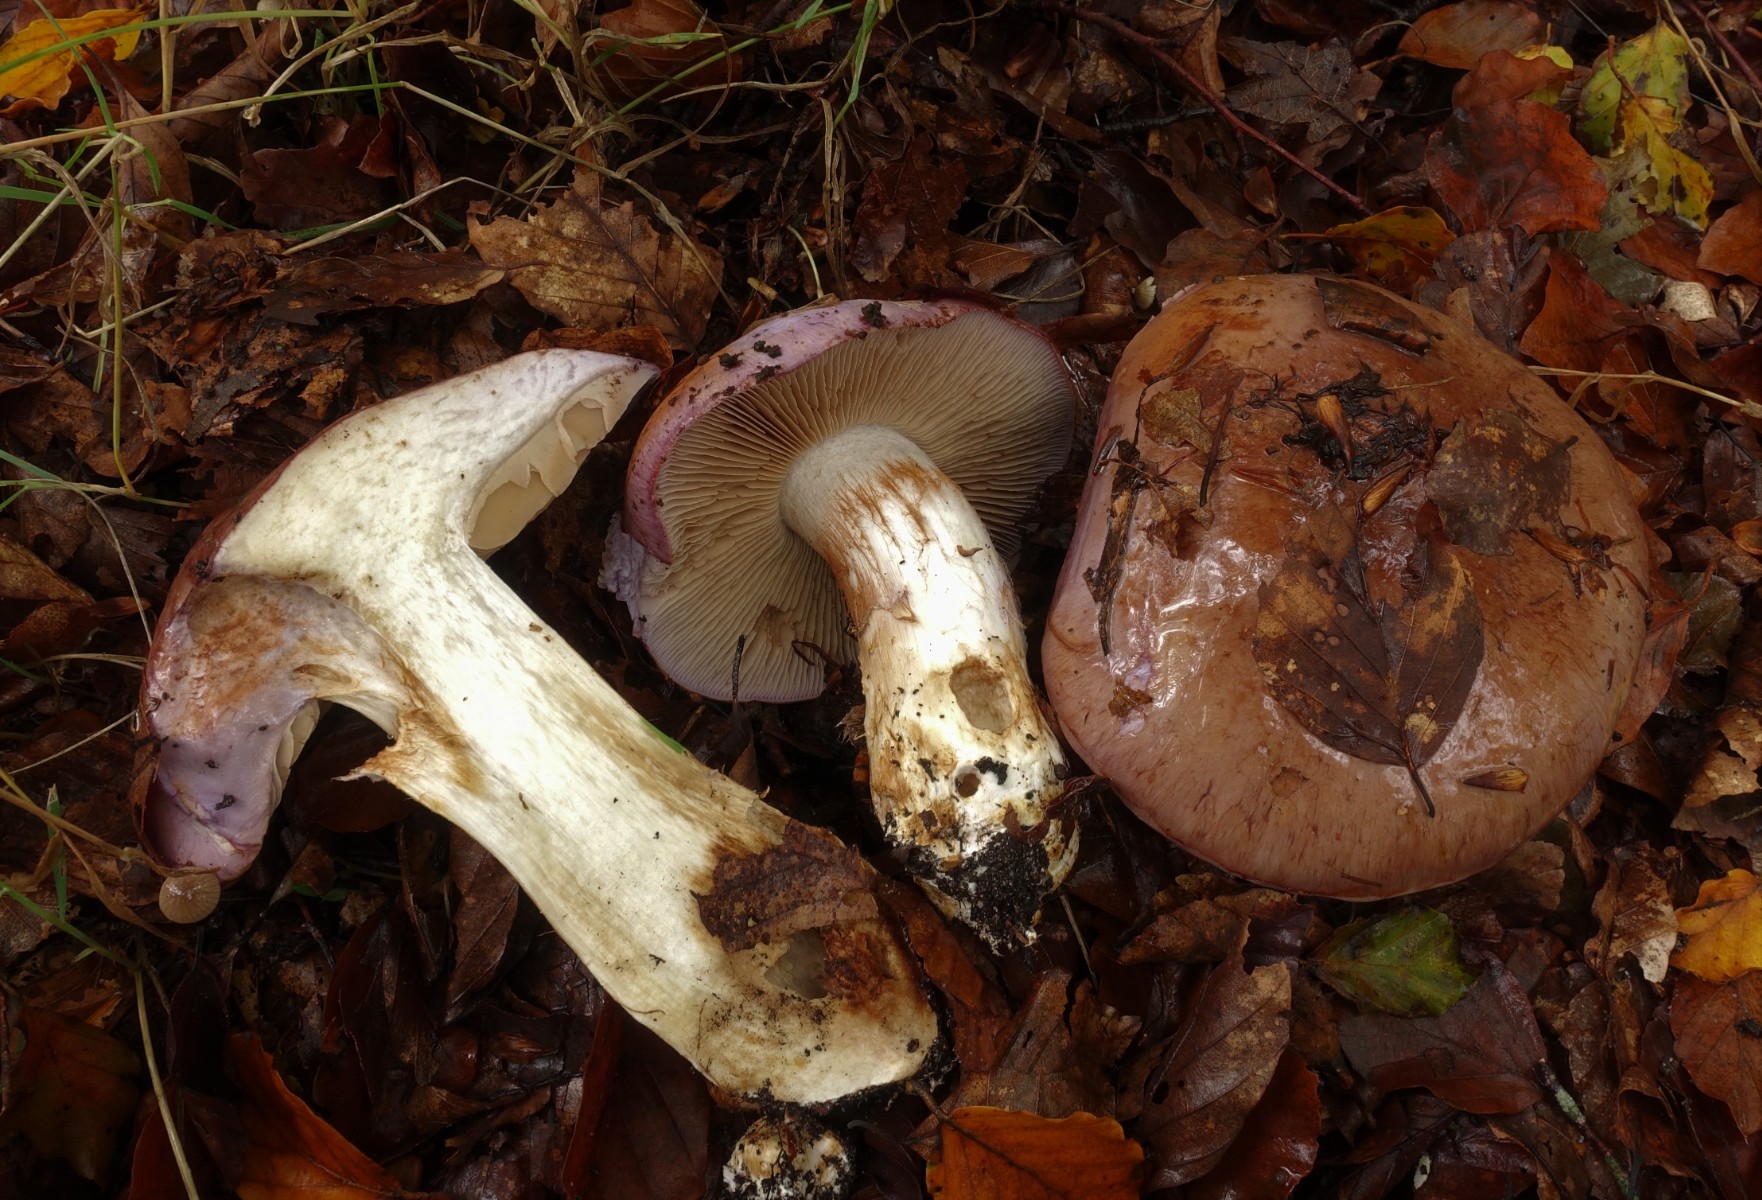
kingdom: Fungi
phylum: Basidiomycota
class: Agaricomycetes
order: Agaricales
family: Cortinariaceae
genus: Cortinarius
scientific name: Cortinarius largus
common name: violetrandet slørhat
